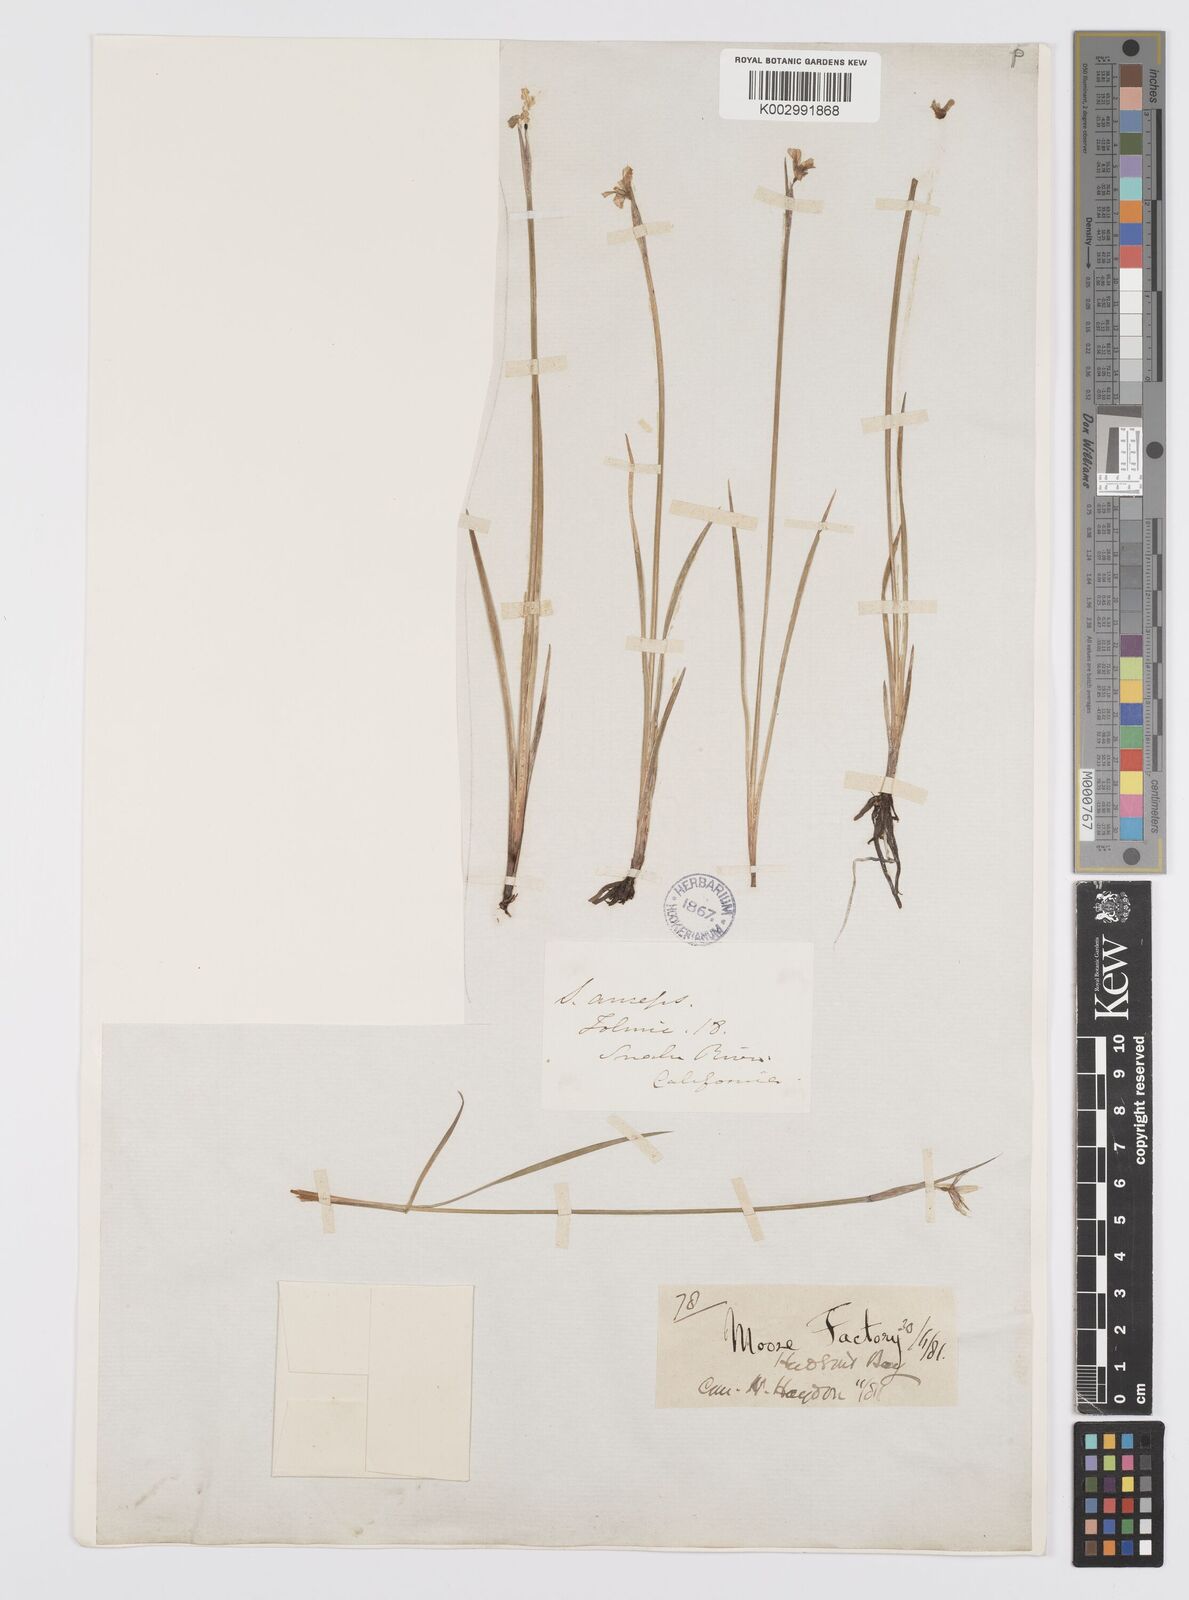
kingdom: Plantae
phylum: Tracheophyta
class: Liliopsida
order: Asparagales
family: Iridaceae
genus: Sisyrinchium
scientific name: Sisyrinchium
